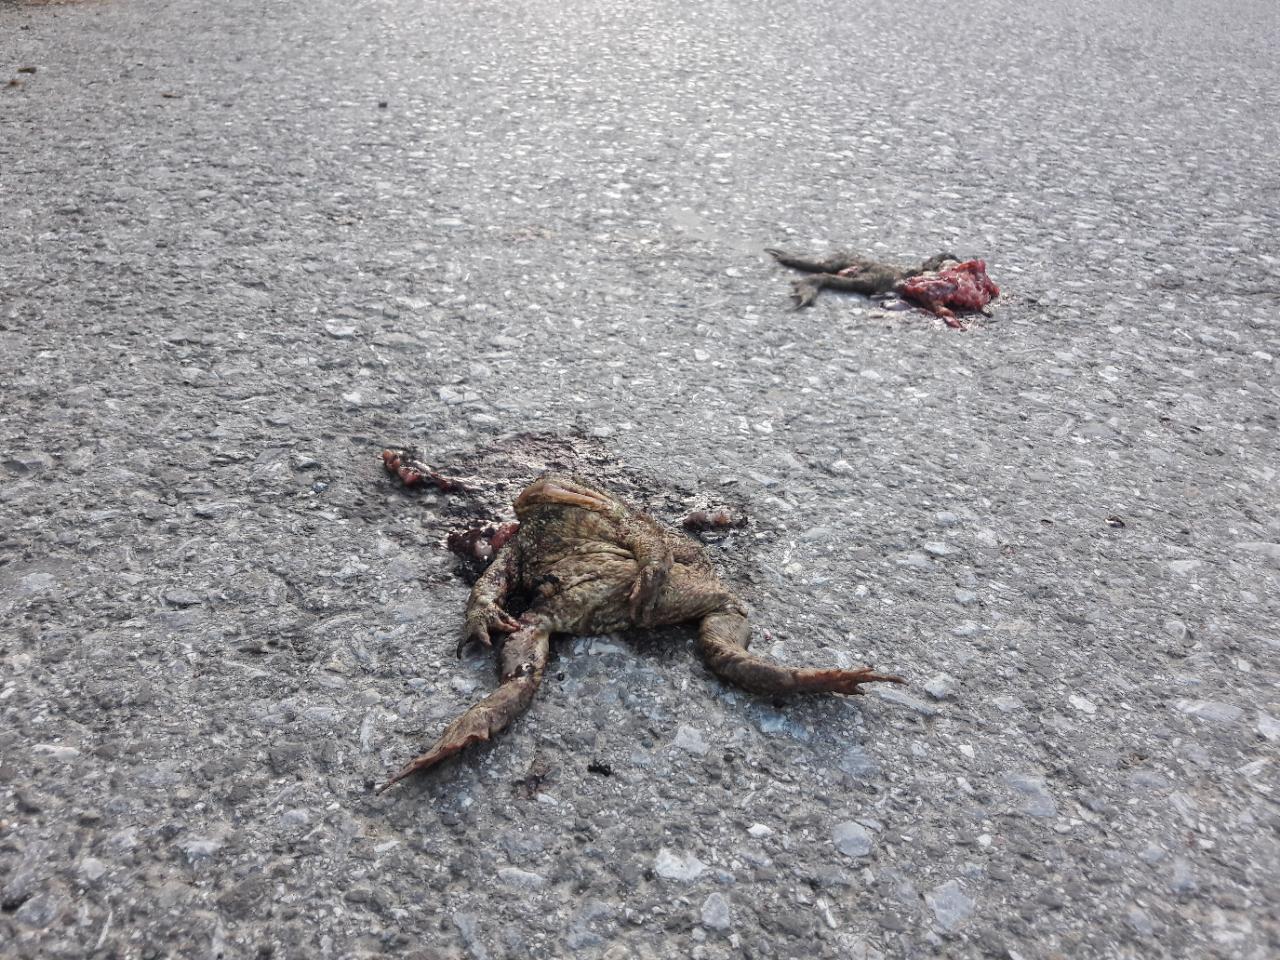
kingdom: Animalia
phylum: Chordata
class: Amphibia
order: Anura
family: Bufonidae
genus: Bufo
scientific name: Bufo bufo
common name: Common toad
